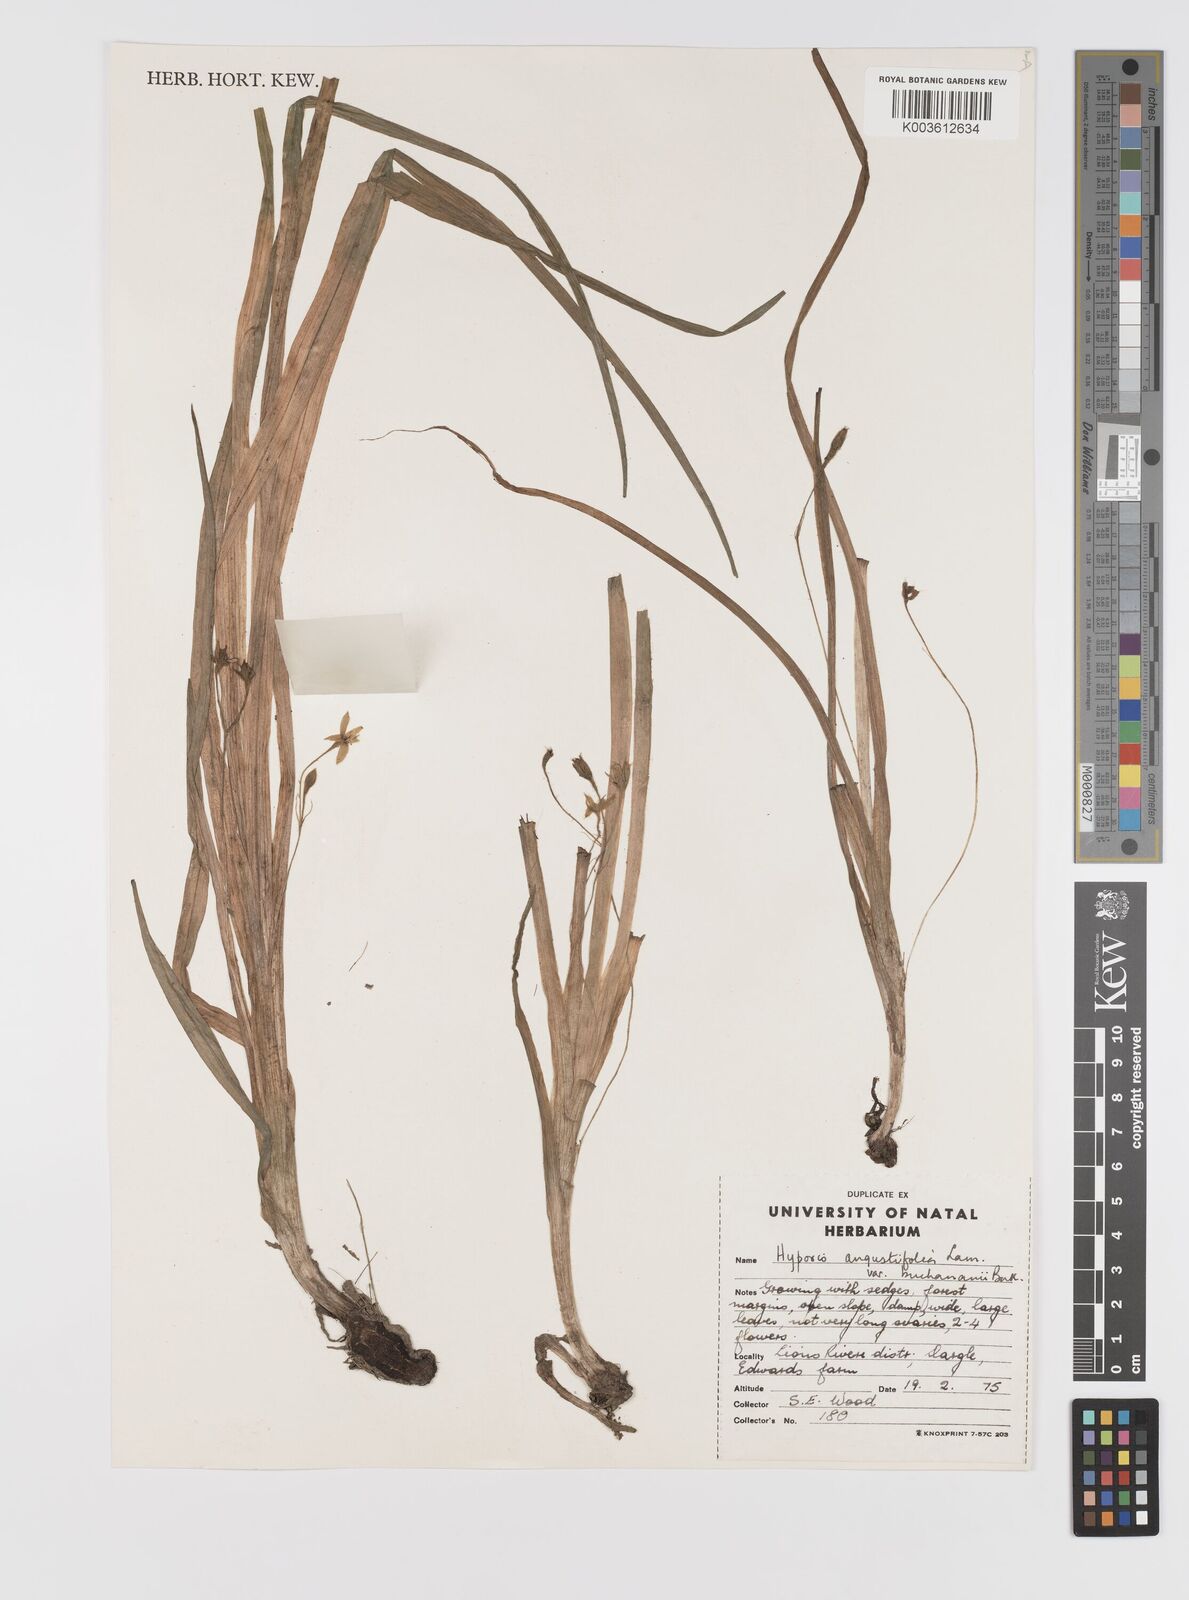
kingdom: Plantae
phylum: Tracheophyta
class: Liliopsida
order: Asparagales
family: Hypoxidaceae
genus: Hypoxis
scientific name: Hypoxis angustifolia
